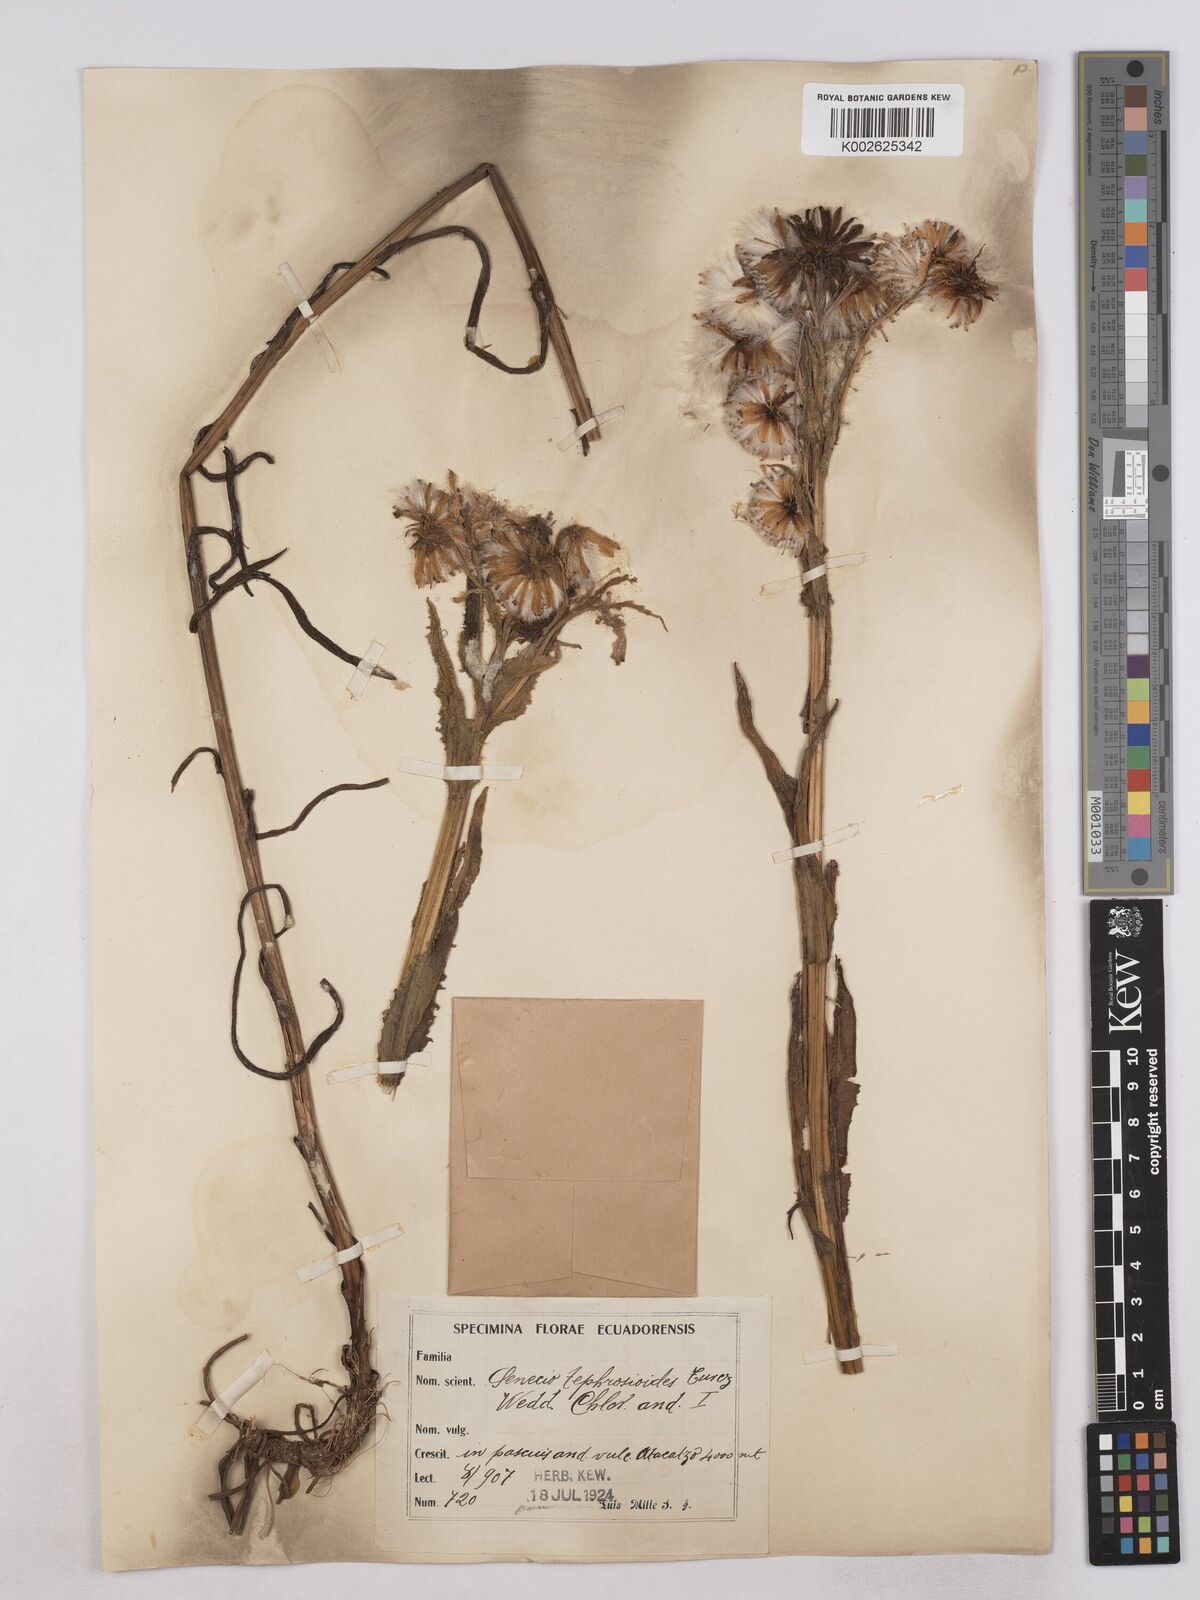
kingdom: Plantae
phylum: Tracheophyta
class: Magnoliopsida
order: Asterales
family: Asteraceae
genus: Senecio
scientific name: Senecio tephrosioides
